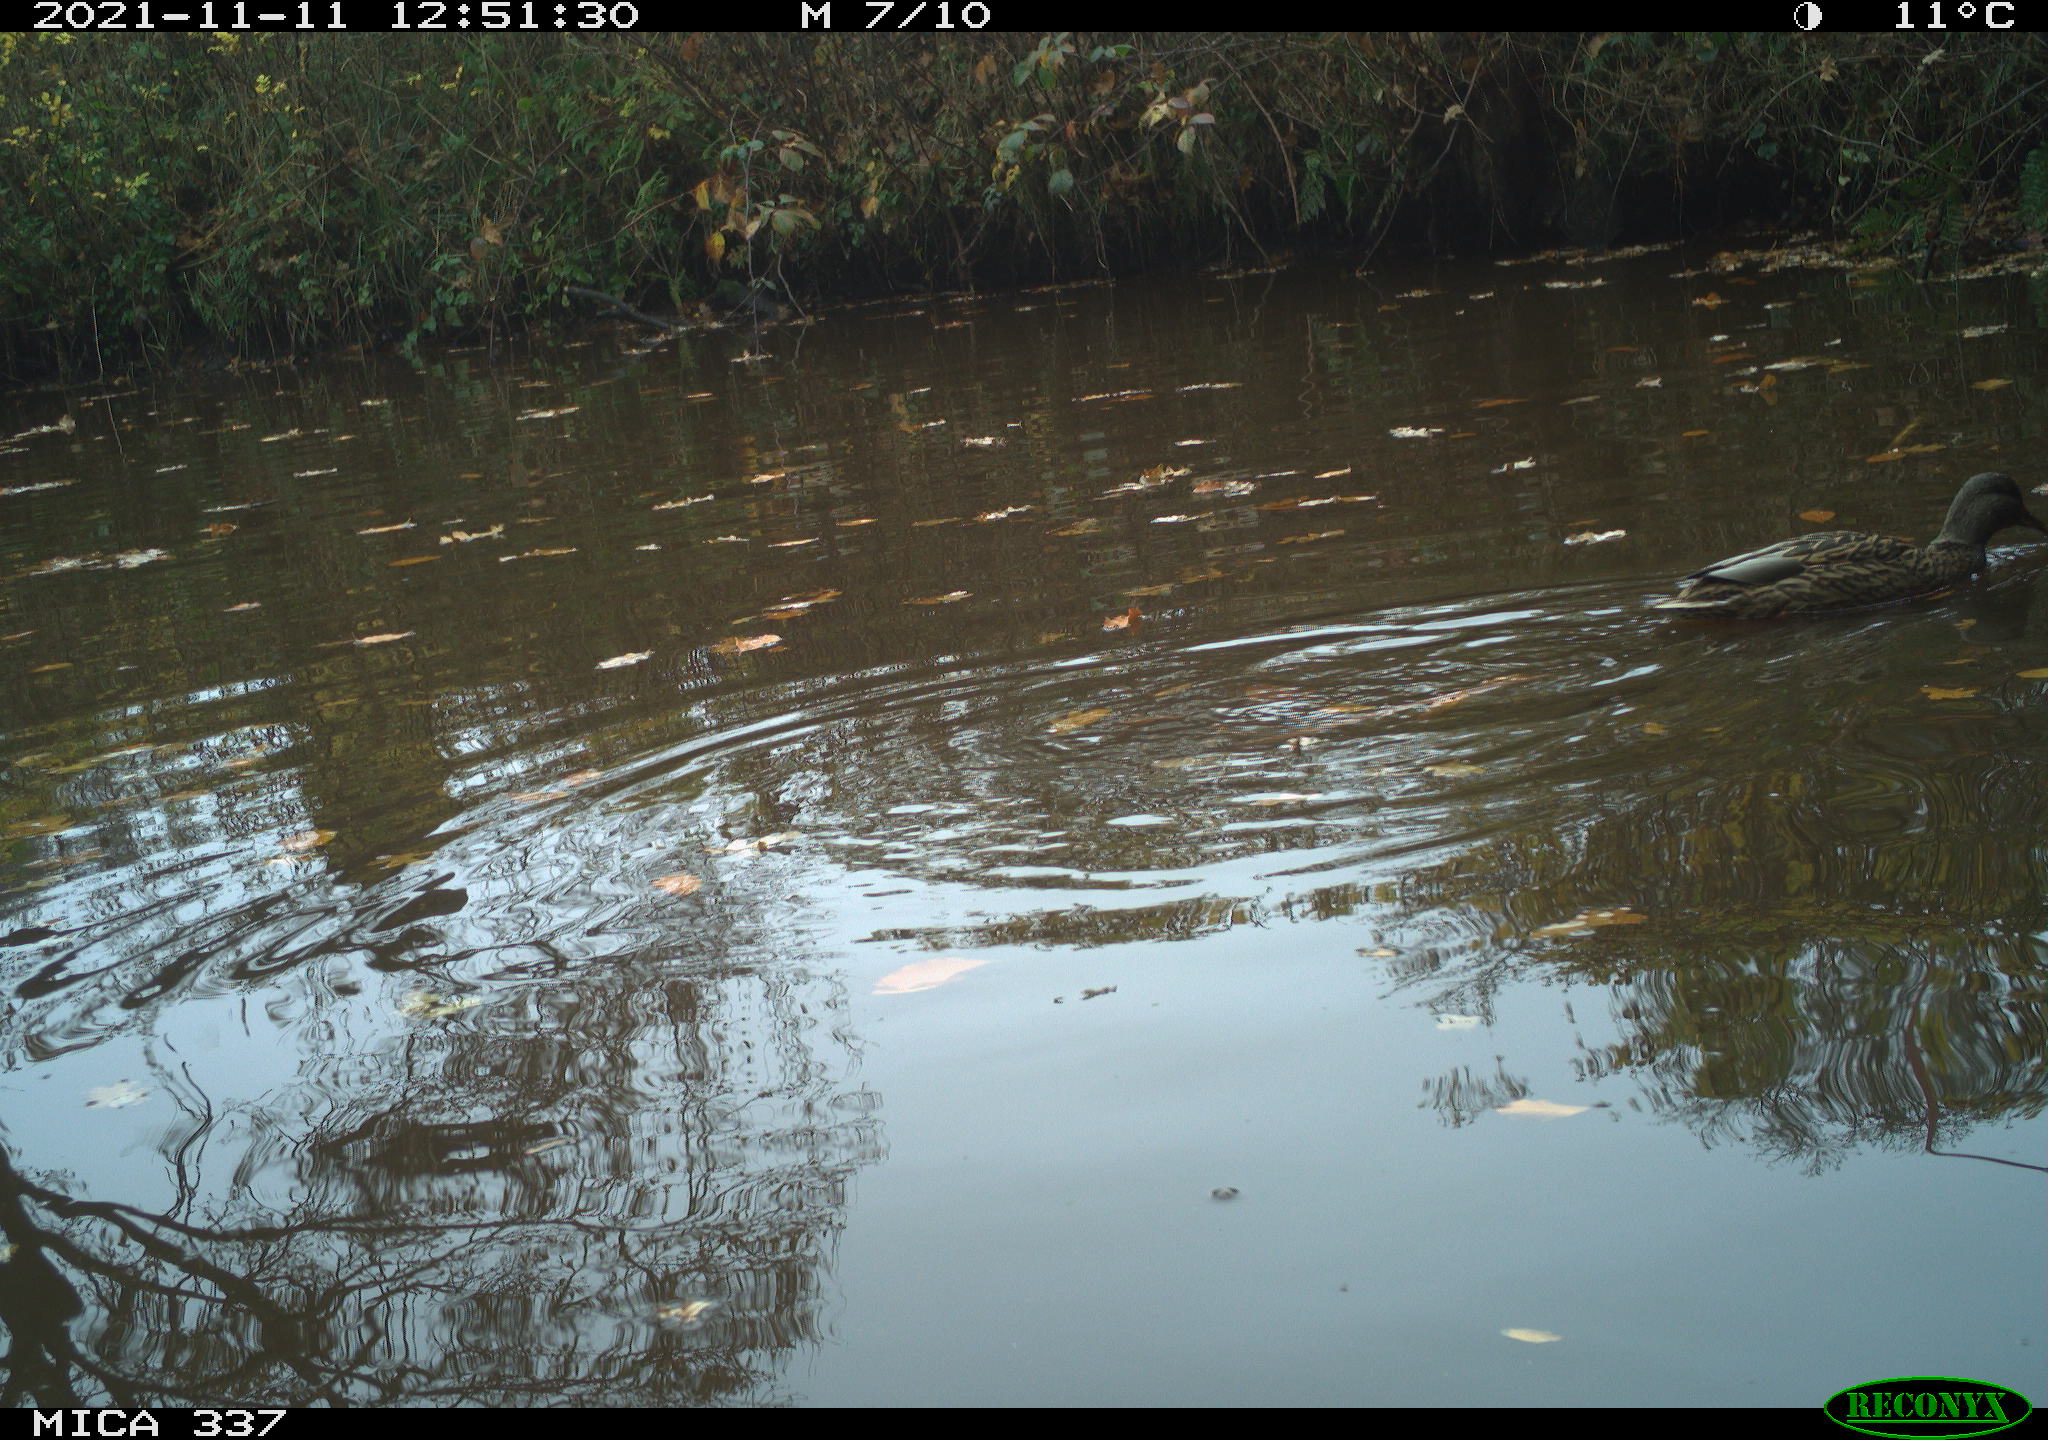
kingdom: Animalia
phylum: Chordata
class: Aves
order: Anseriformes
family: Anatidae
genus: Anas
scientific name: Anas platyrhynchos
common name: Mallard
